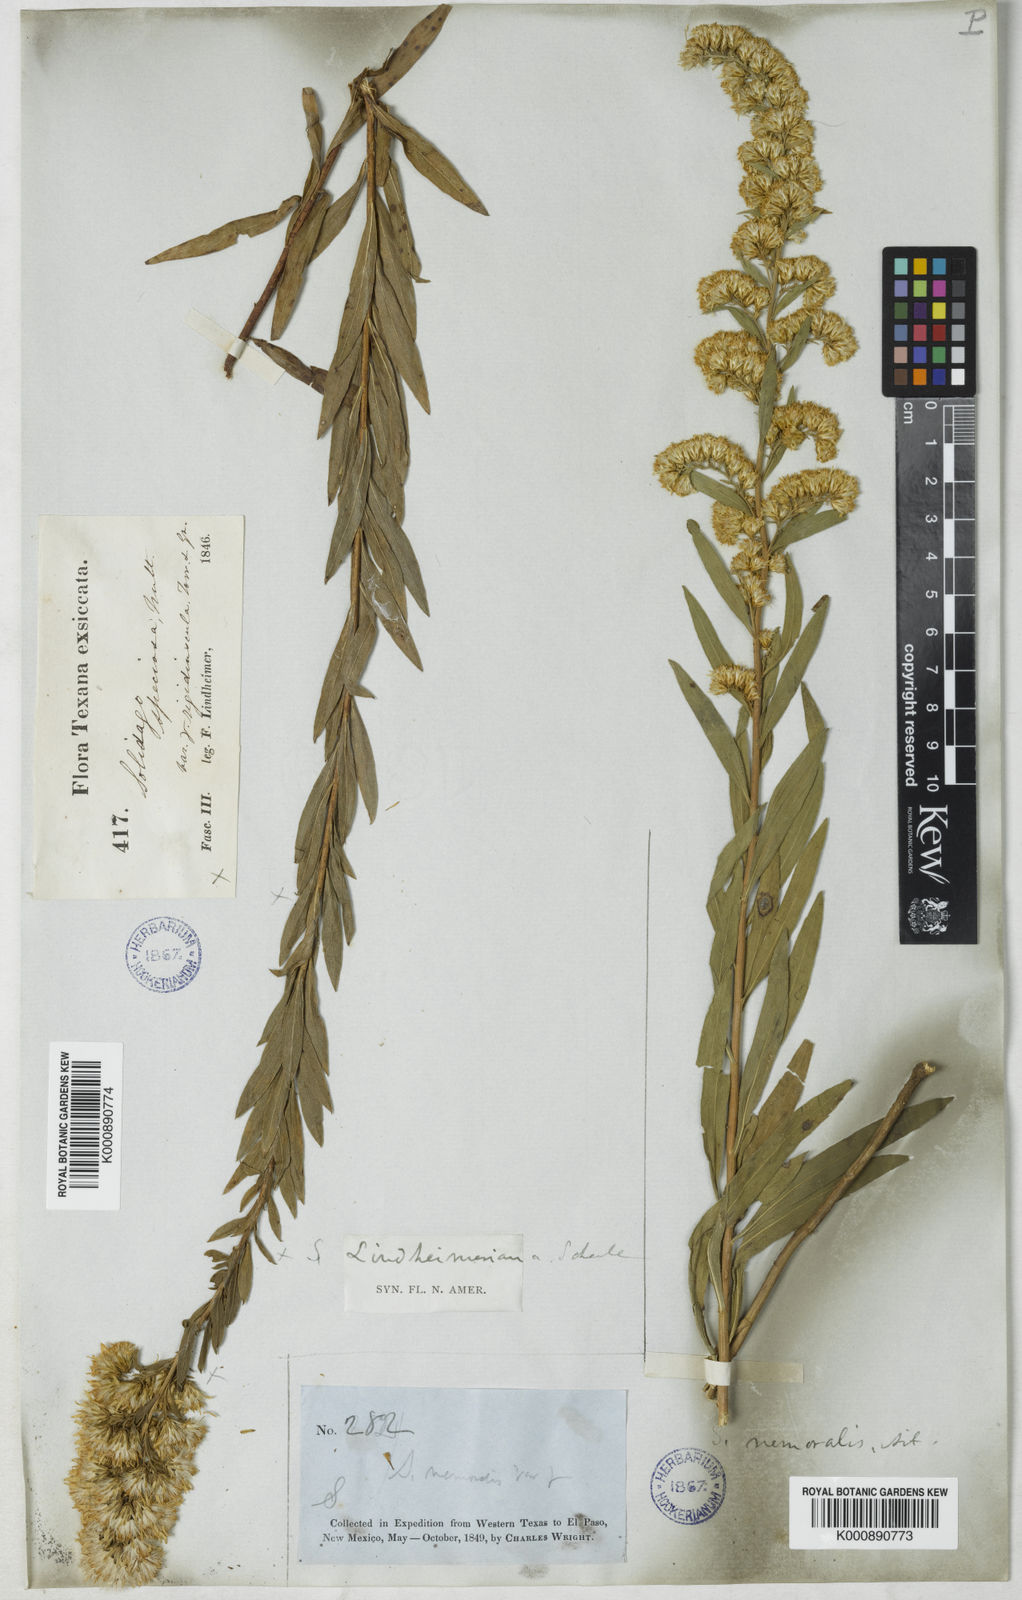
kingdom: Plantae
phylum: Tracheophyta
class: Magnoliopsida
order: Asterales
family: Asteraceae
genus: Solidago
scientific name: Solidago petiolaris
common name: Downy ragged goldenrod
